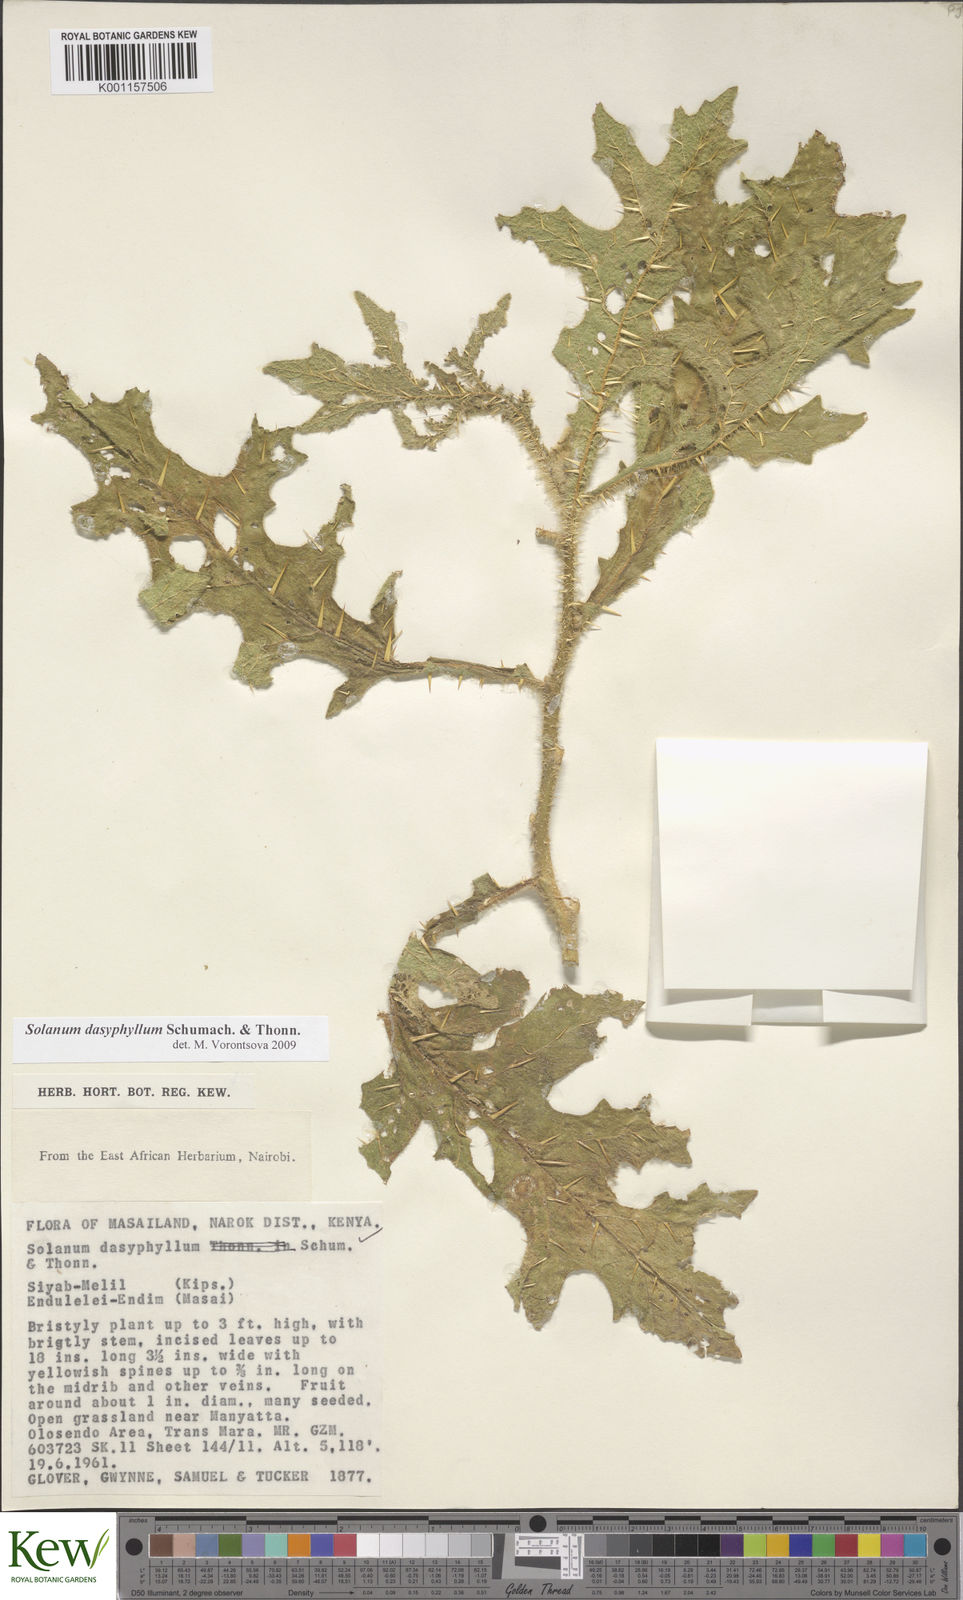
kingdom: Plantae
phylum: Tracheophyta
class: Magnoliopsida
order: Solanales
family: Solanaceae
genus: Solanum
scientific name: Solanum dasyphyllum
